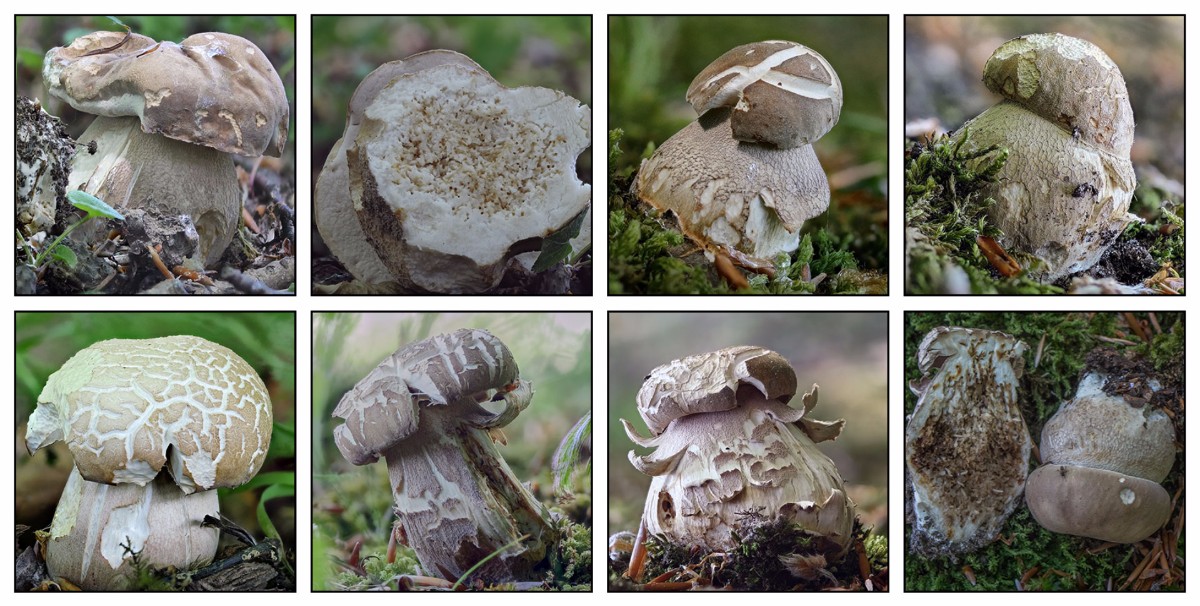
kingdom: Fungi
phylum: Basidiomycota
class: Agaricomycetes
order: Boletales
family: Boletaceae
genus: Boletus
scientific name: Boletus reticulatus
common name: sommer-rørhat
